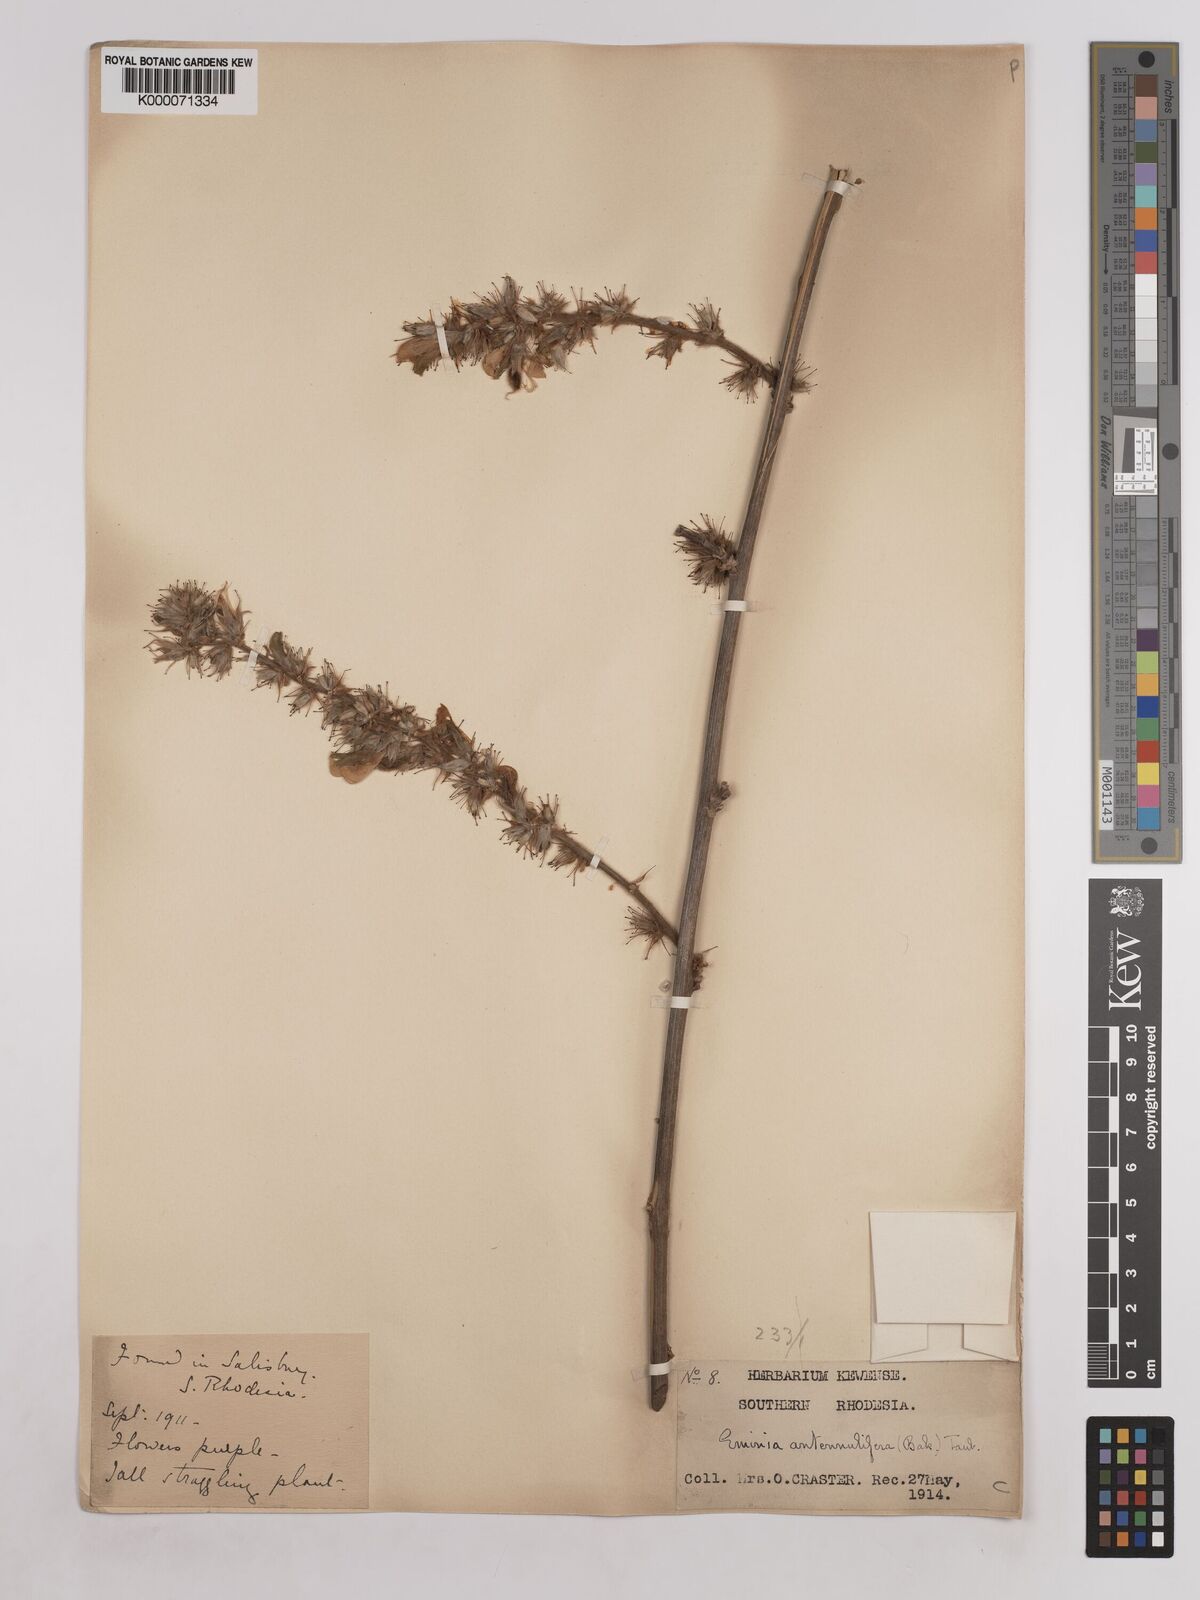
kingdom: Plantae
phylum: Tracheophyta
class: Magnoliopsida
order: Fabales
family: Fabaceae
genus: Eminia
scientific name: Eminia antennulifera
